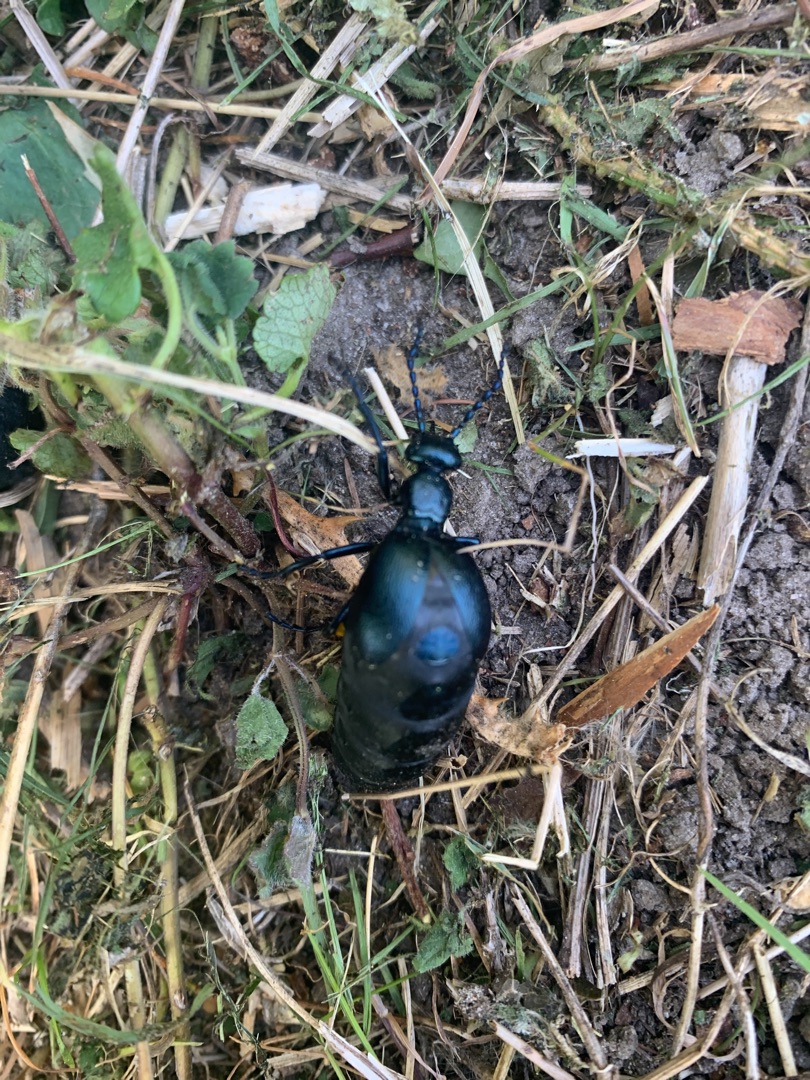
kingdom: Animalia
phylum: Arthropoda
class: Insecta
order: Coleoptera
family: Meloidae
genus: Meloe
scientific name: Meloe violaceus
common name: Blå oliebille
